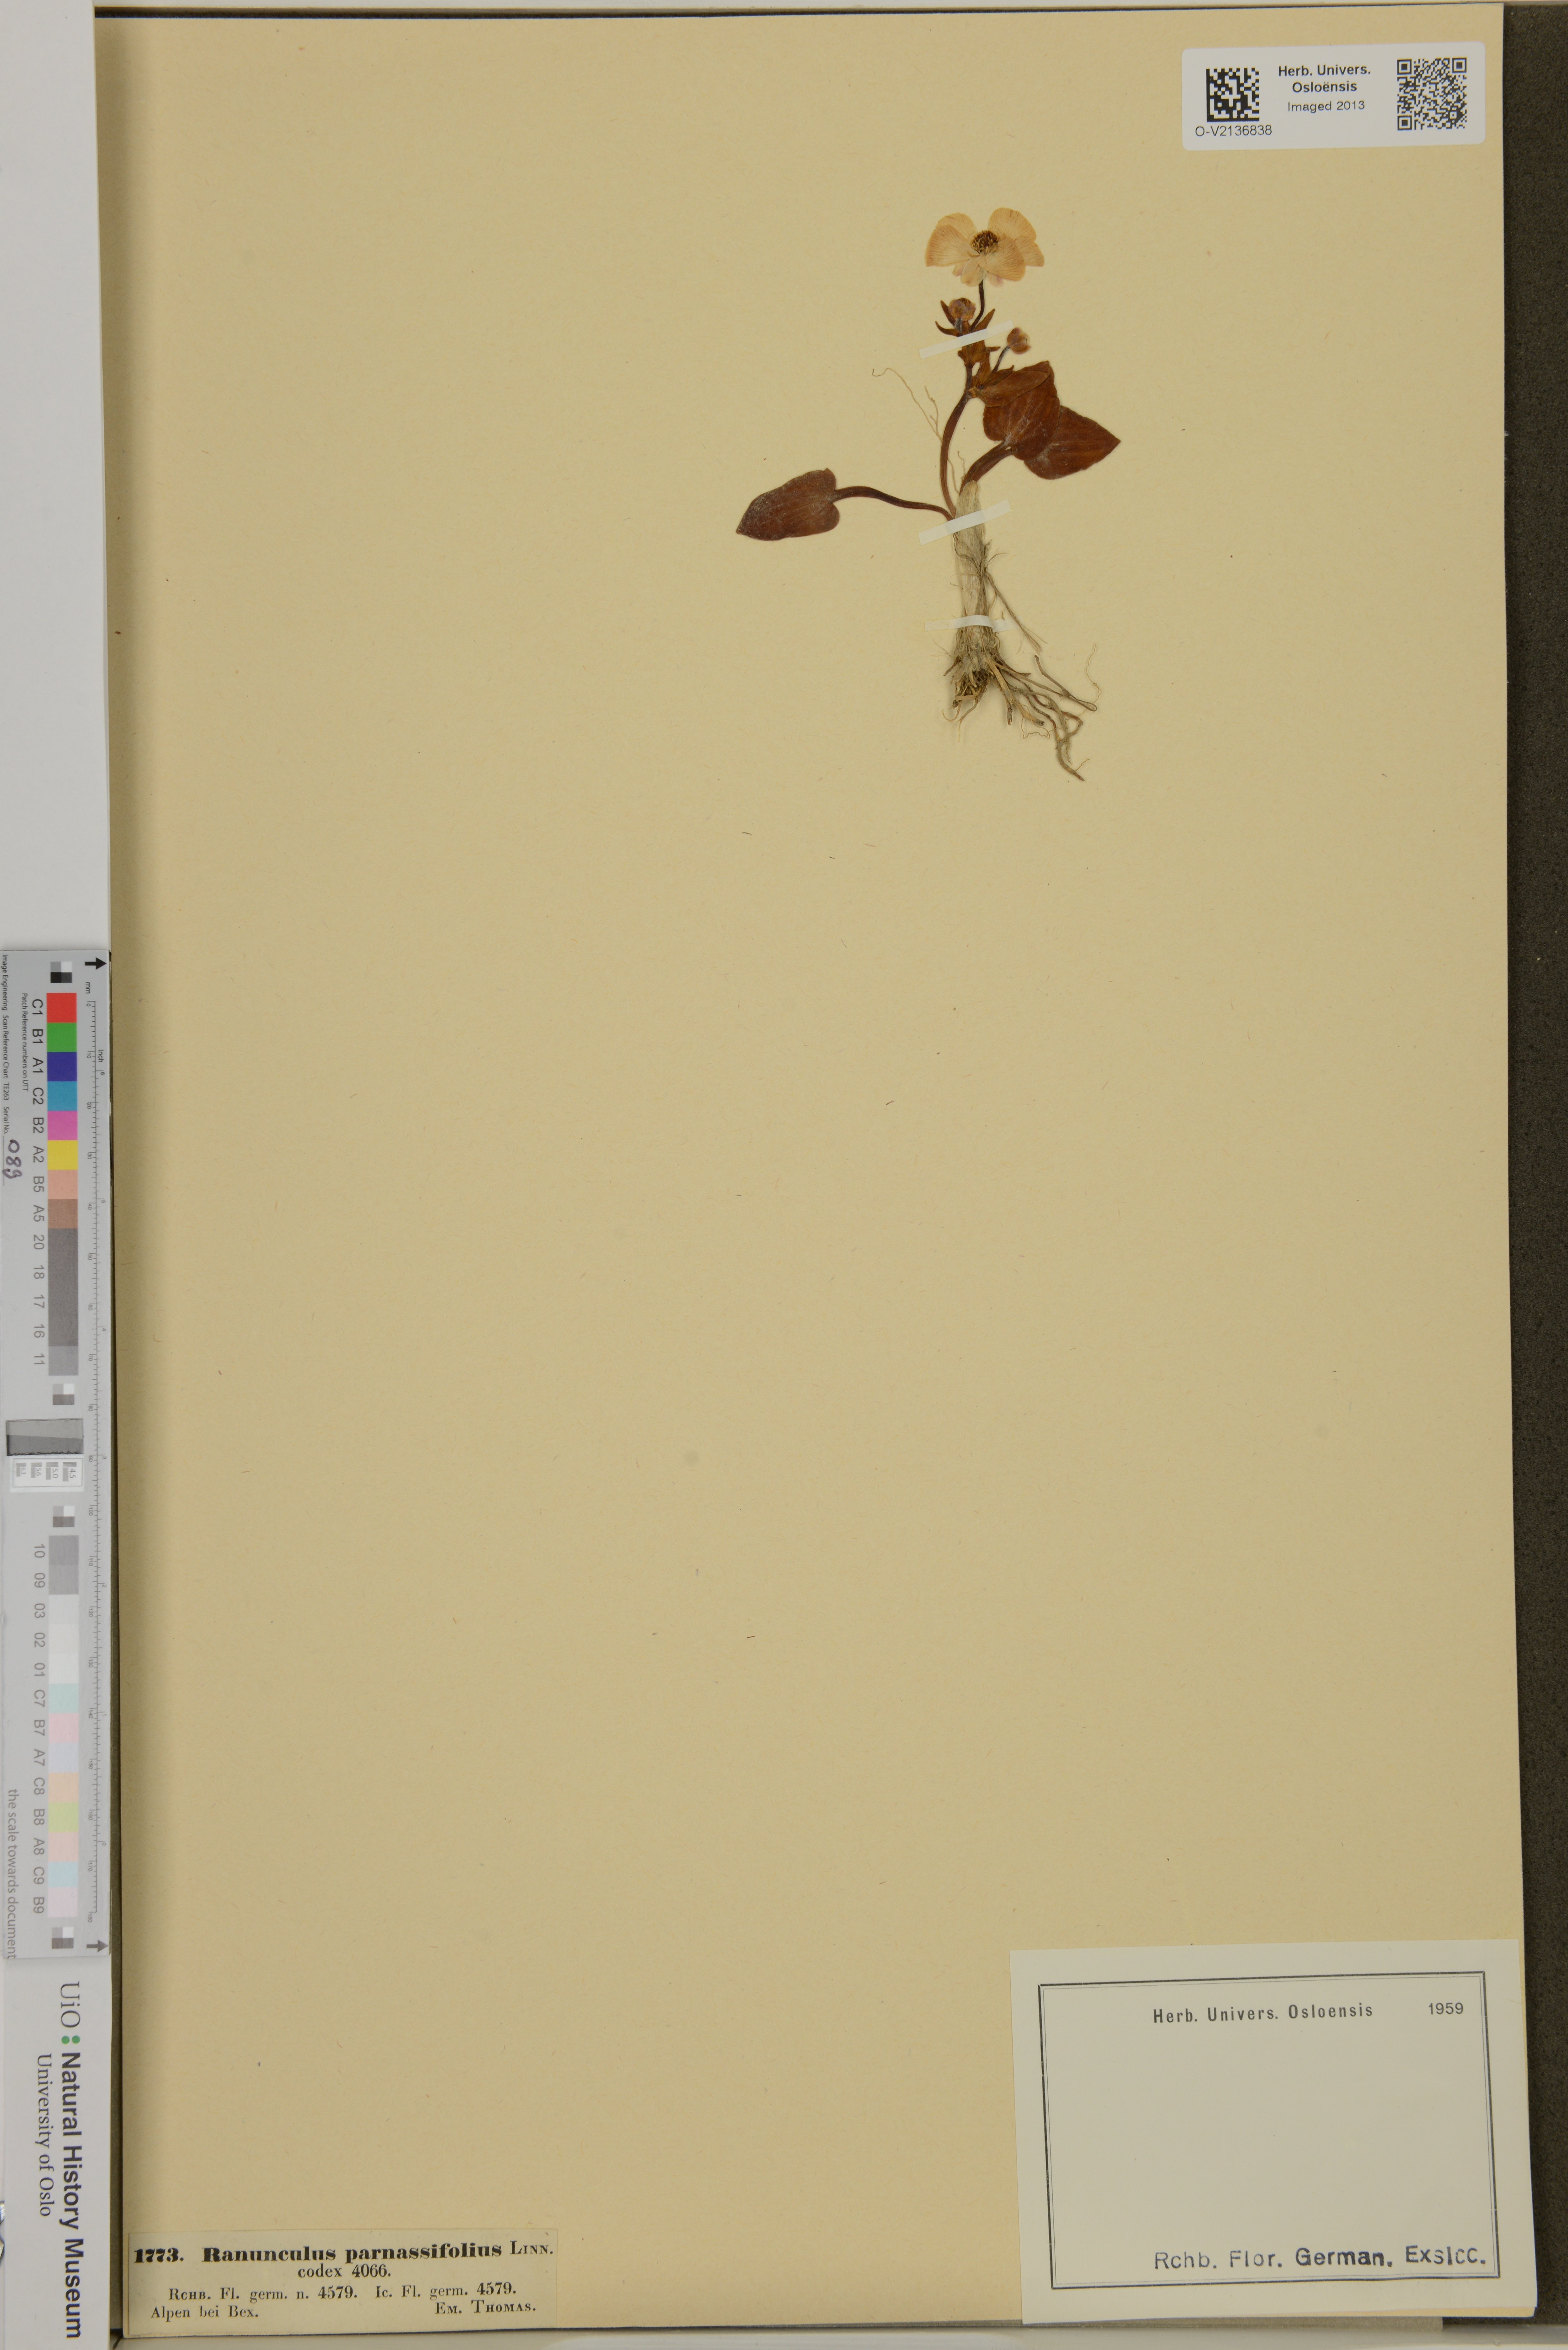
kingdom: Plantae
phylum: Tracheophyta
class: Magnoliopsida
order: Ranunculales
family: Ranunculaceae
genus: Ranunculus
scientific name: Ranunculus parnassiifolius
